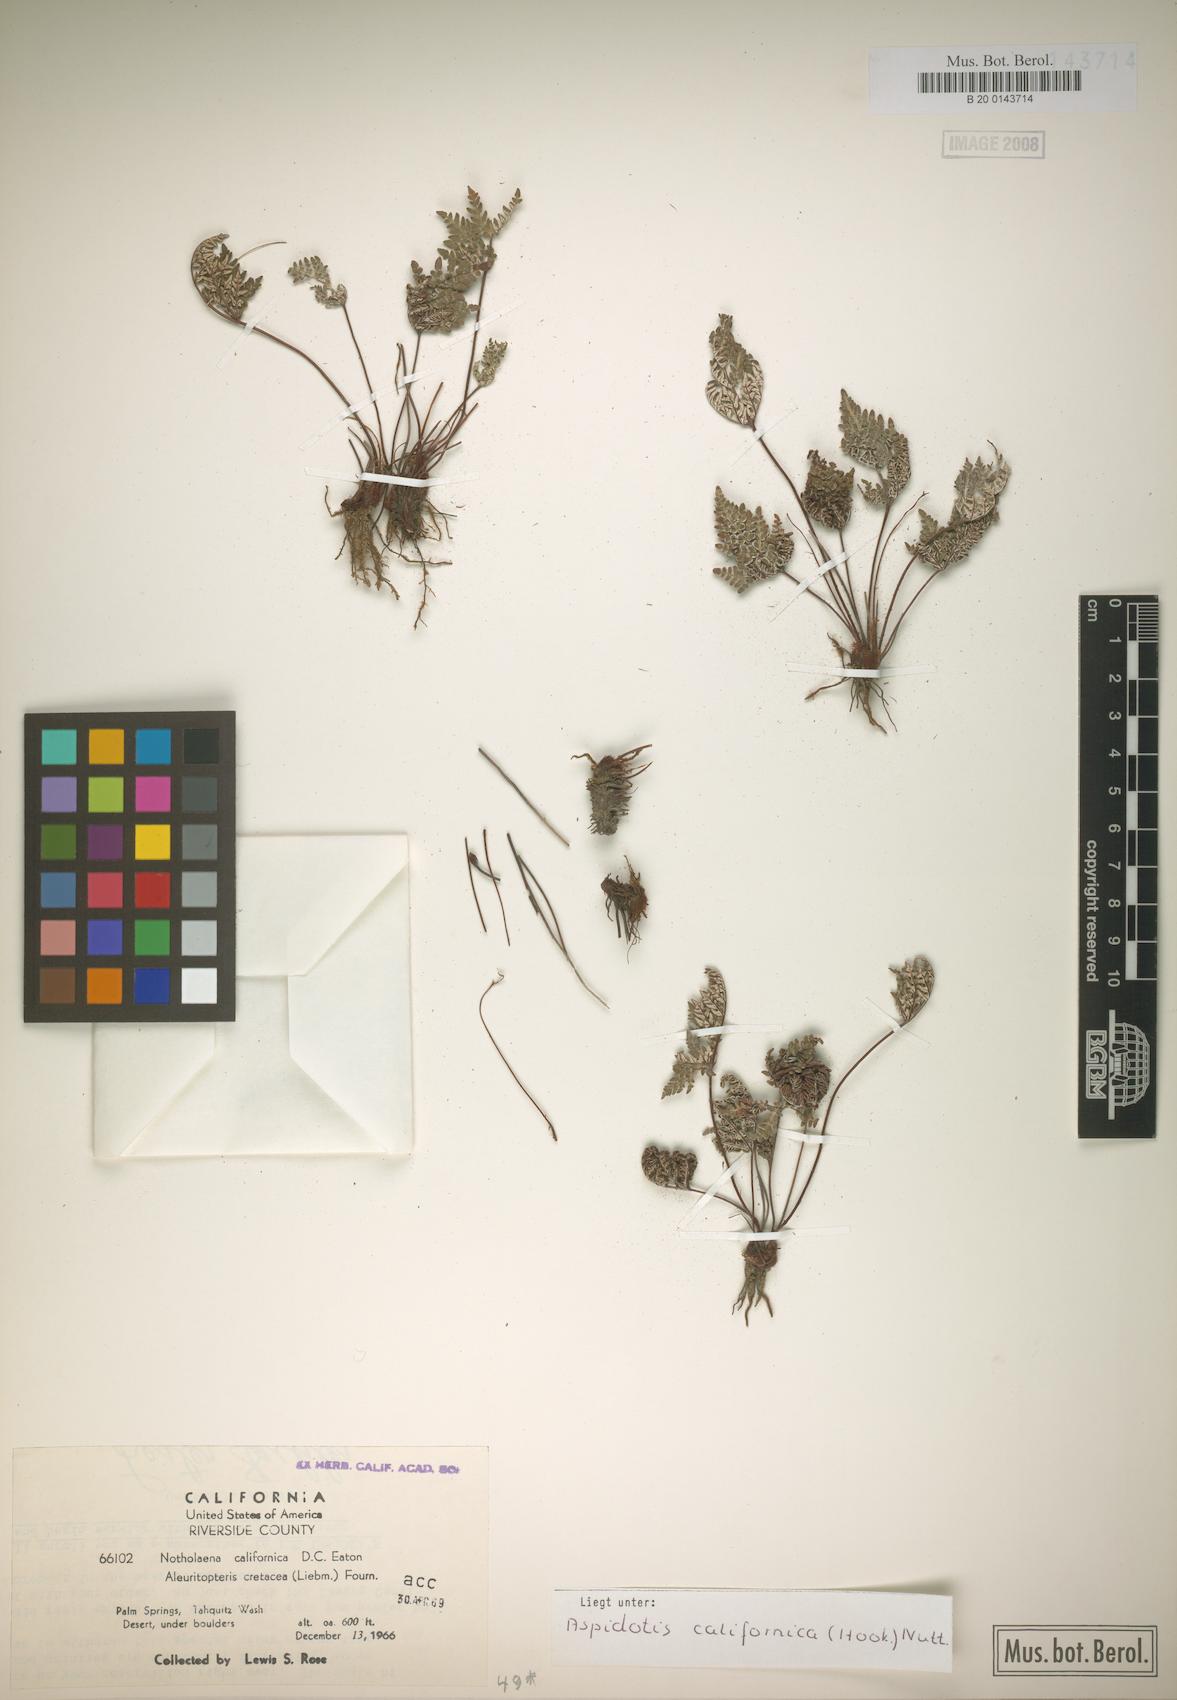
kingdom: Plantae
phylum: Tracheophyta
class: Polypodiopsida
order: Polypodiales
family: Pteridaceae
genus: Notholaena
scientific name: Notholaena californica
